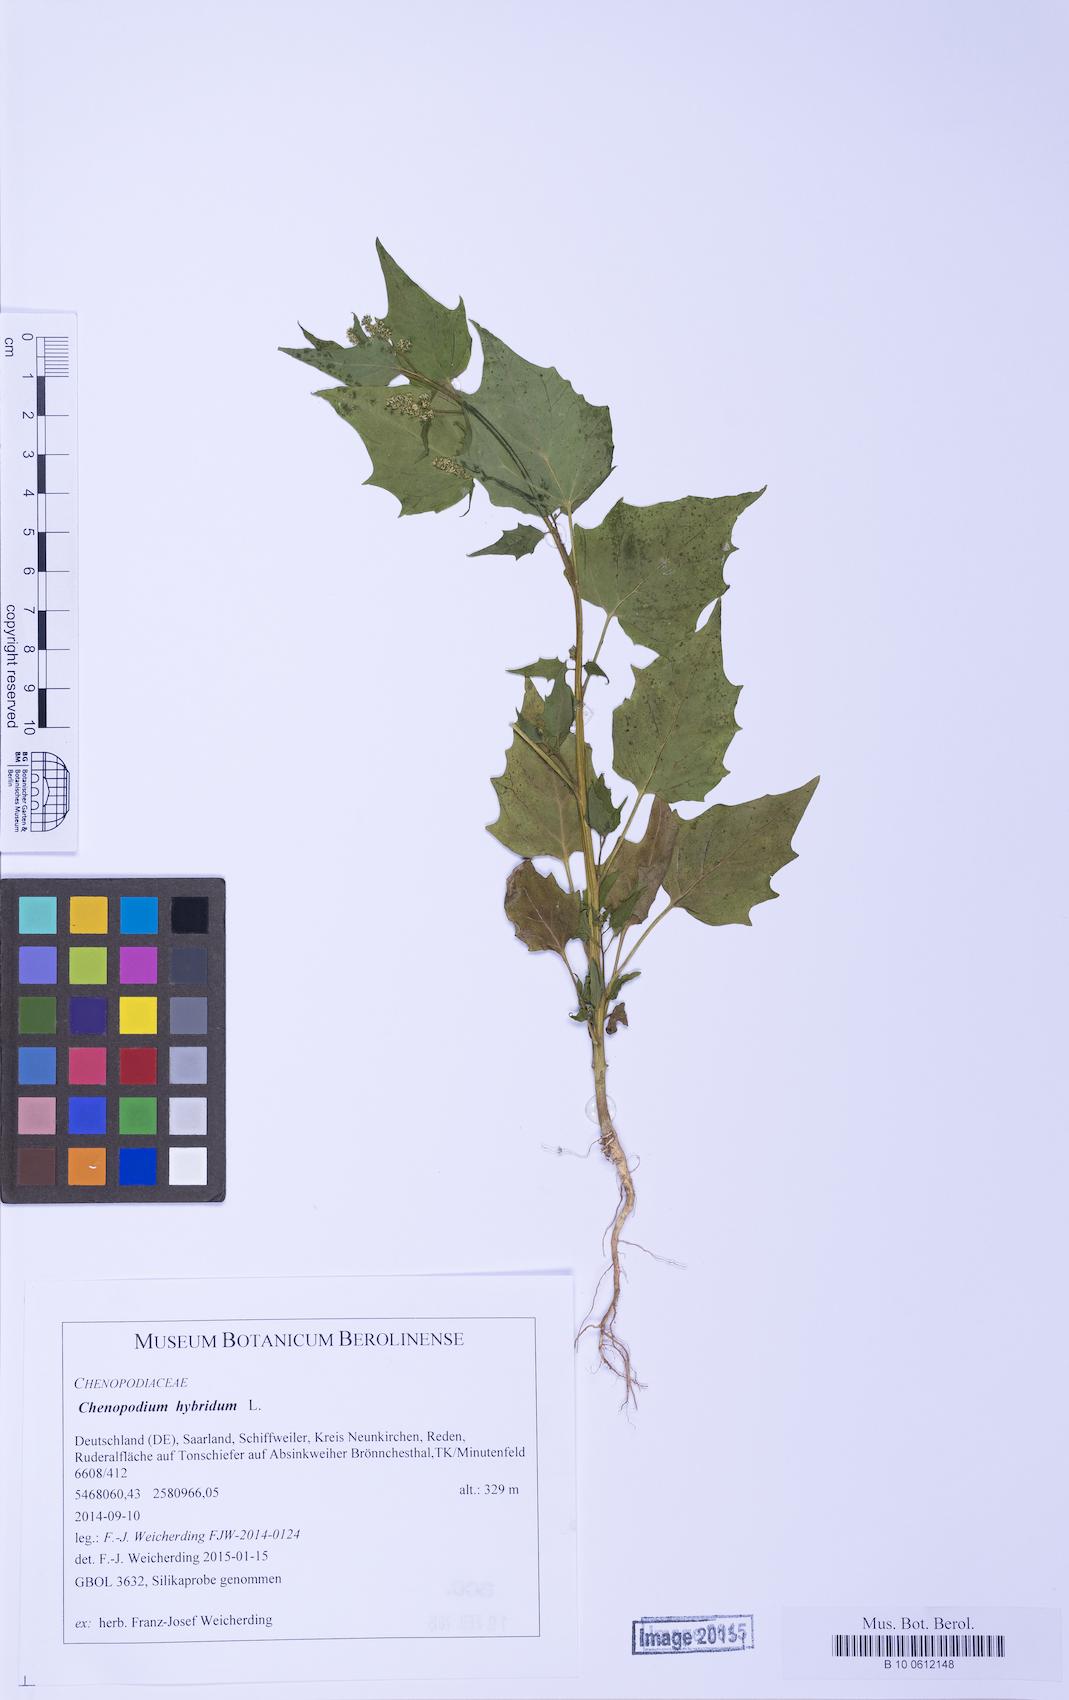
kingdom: Plantae
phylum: Tracheophyta
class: Magnoliopsida
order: Caryophyllales
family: Amaranthaceae
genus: Chenopodiastrum
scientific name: Chenopodiastrum hybridum
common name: Mapleleaf goosefoot
